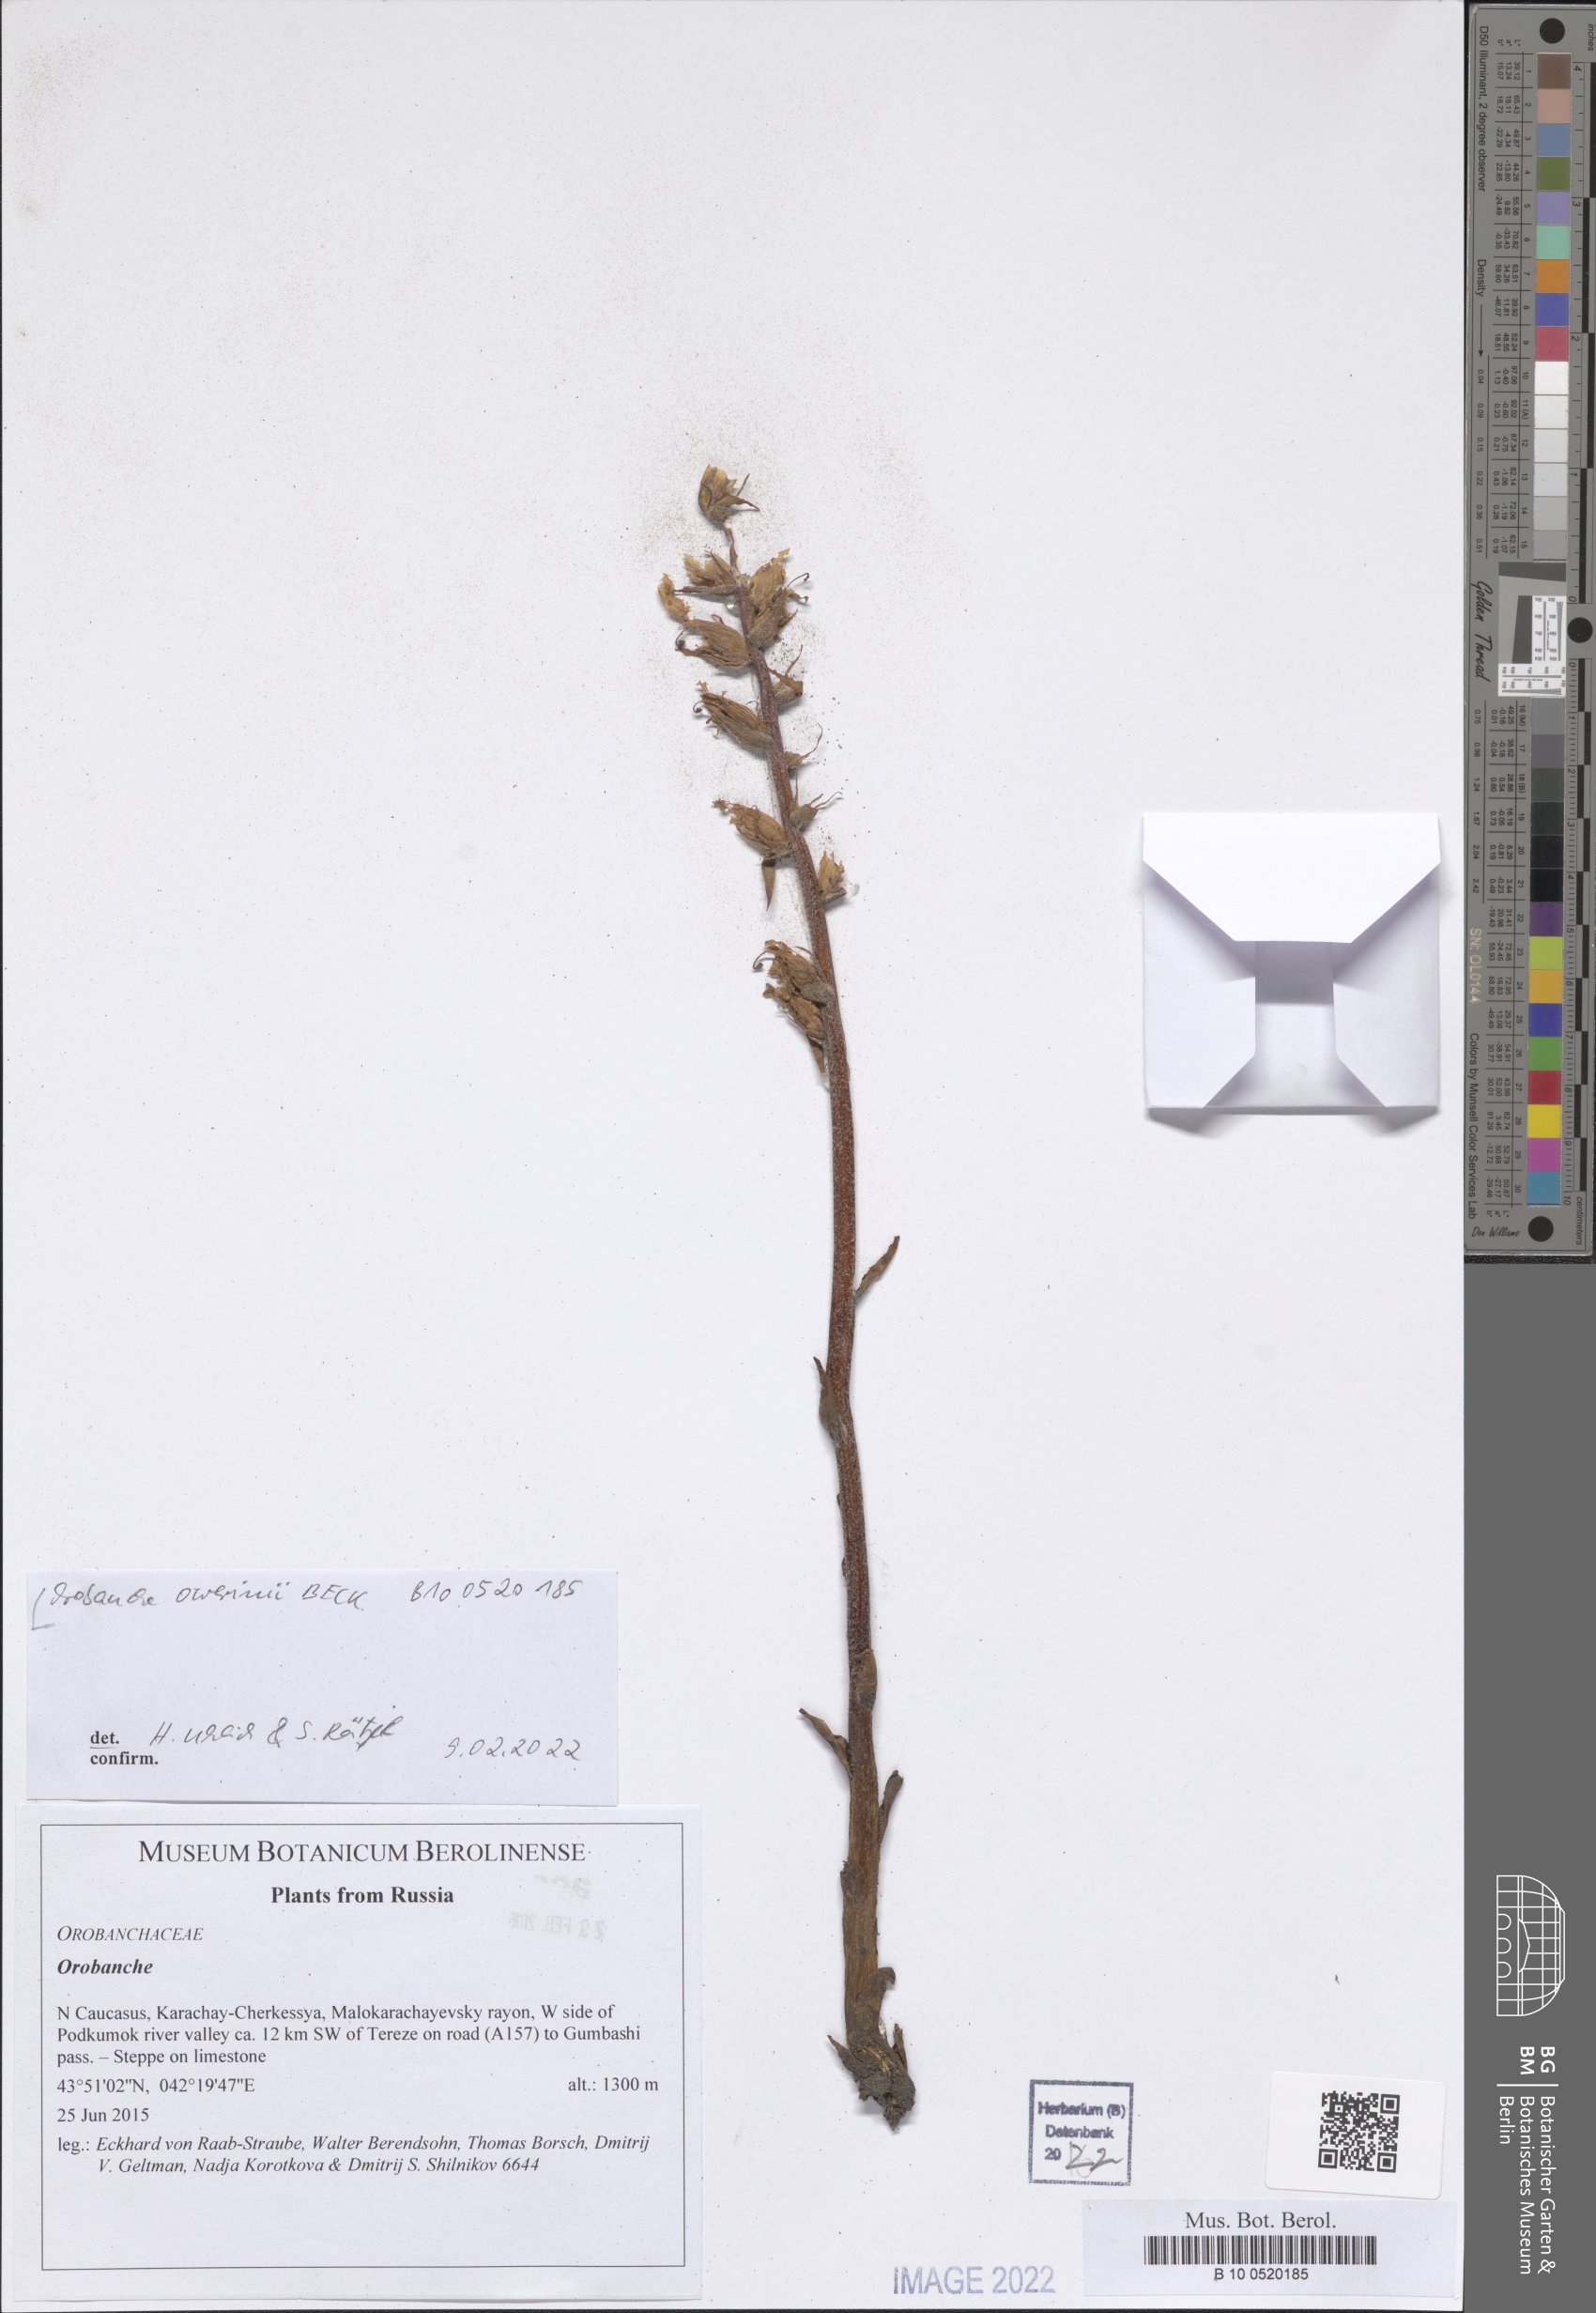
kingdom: Plantae
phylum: Tracheophyta
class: Magnoliopsida
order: Lamiales
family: Orobanchaceae
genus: Orobanche
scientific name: Orobanche owerinii
